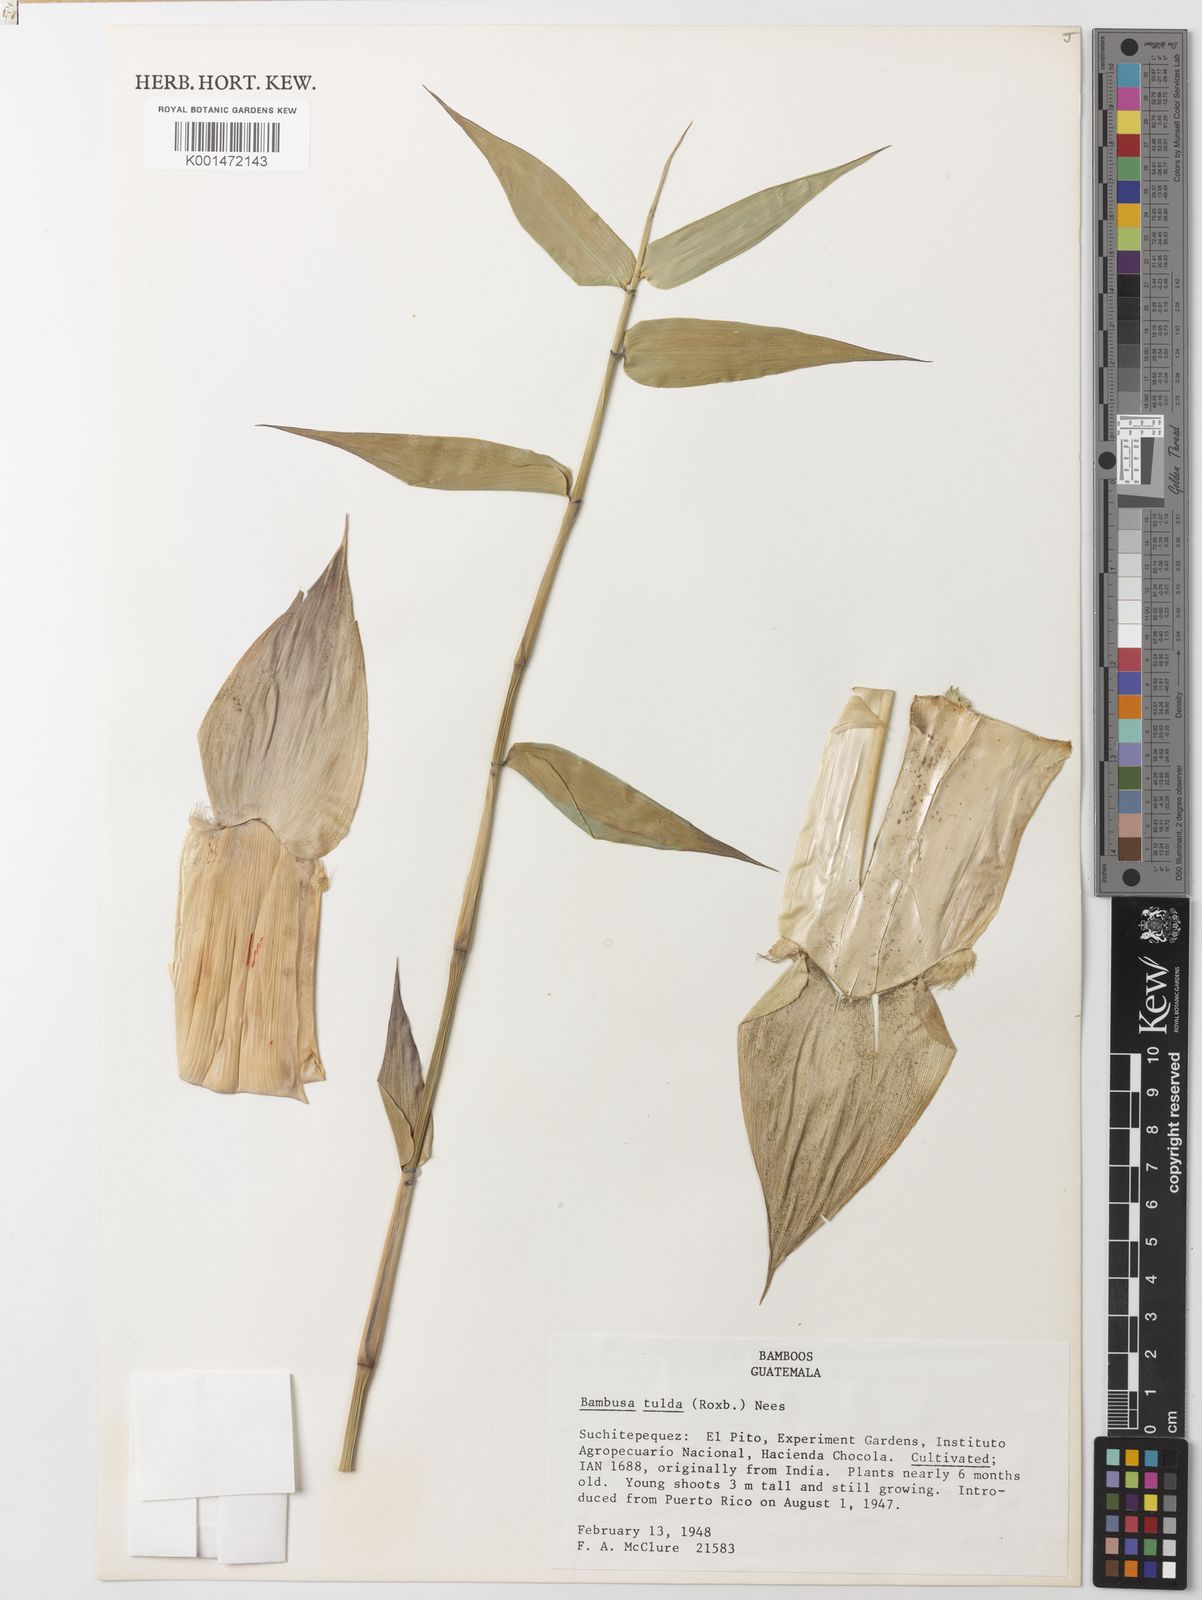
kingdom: Plantae
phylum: Tracheophyta
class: Liliopsida
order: Poales
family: Poaceae
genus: Bambusa
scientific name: Bambusa tulda
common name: Bengal bamboo
